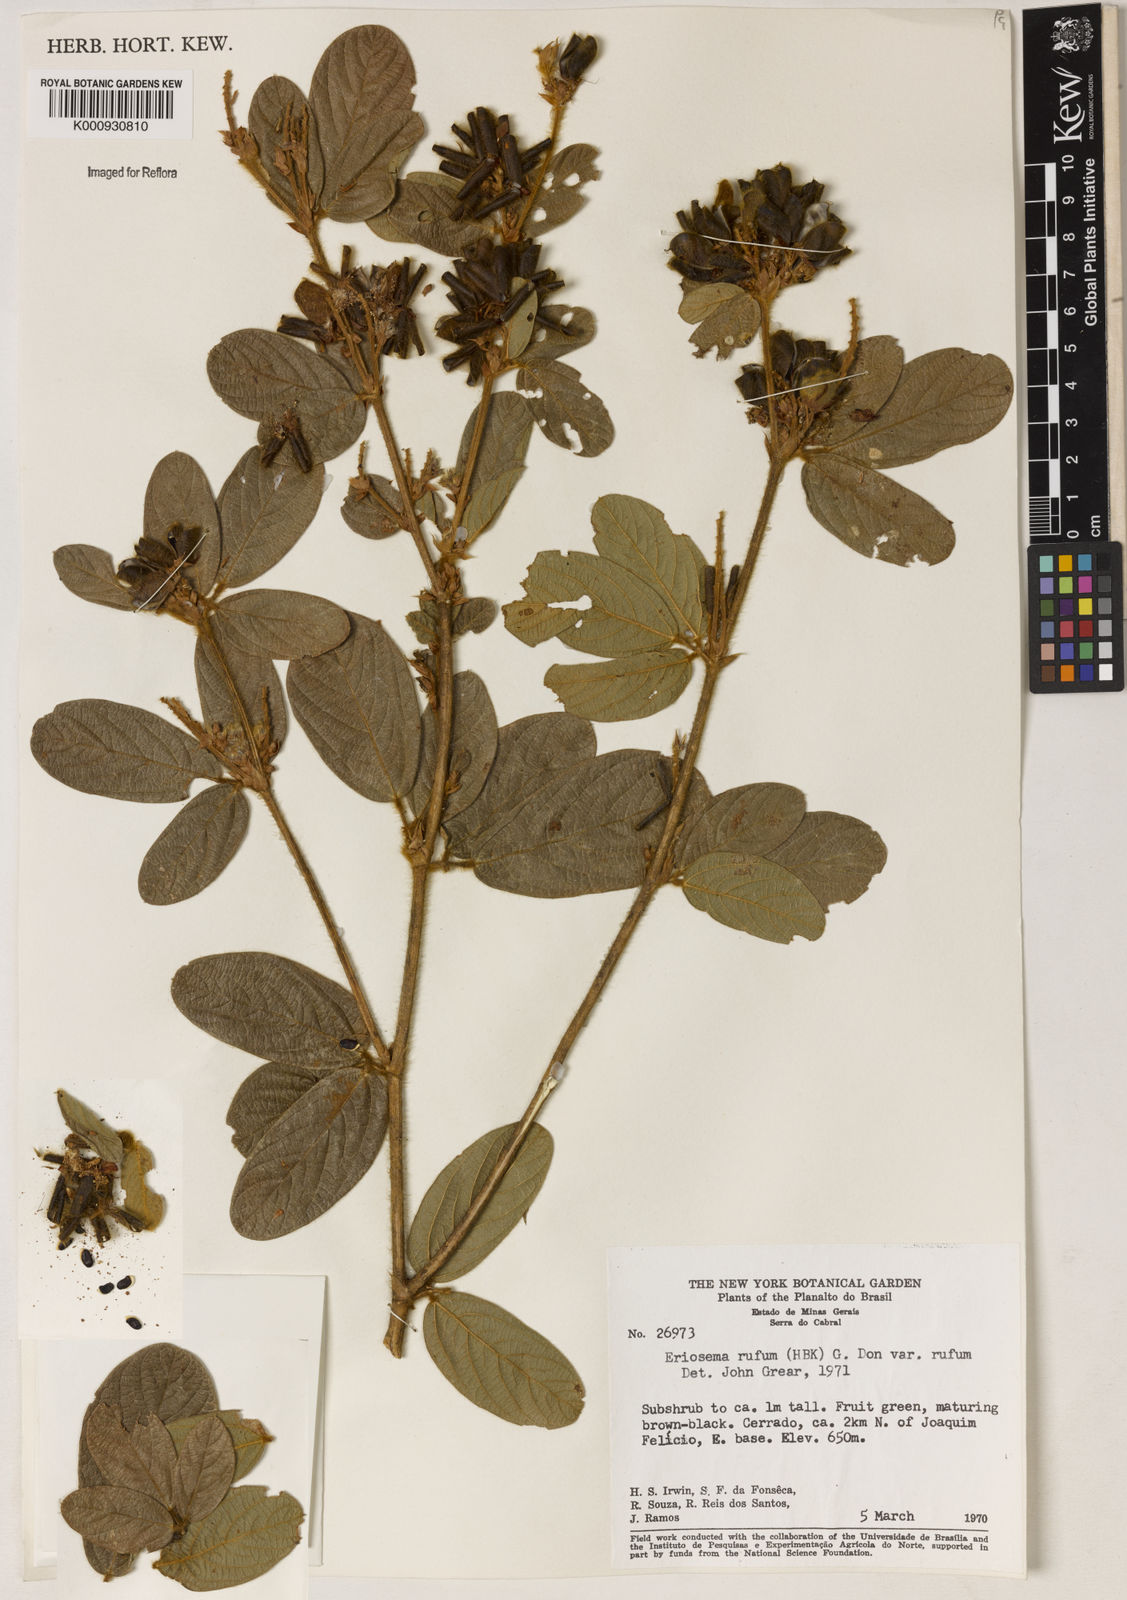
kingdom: Plantae
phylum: Tracheophyta
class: Magnoliopsida
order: Fabales
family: Fabaceae
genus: Eriosema
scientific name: Eriosema rufum
